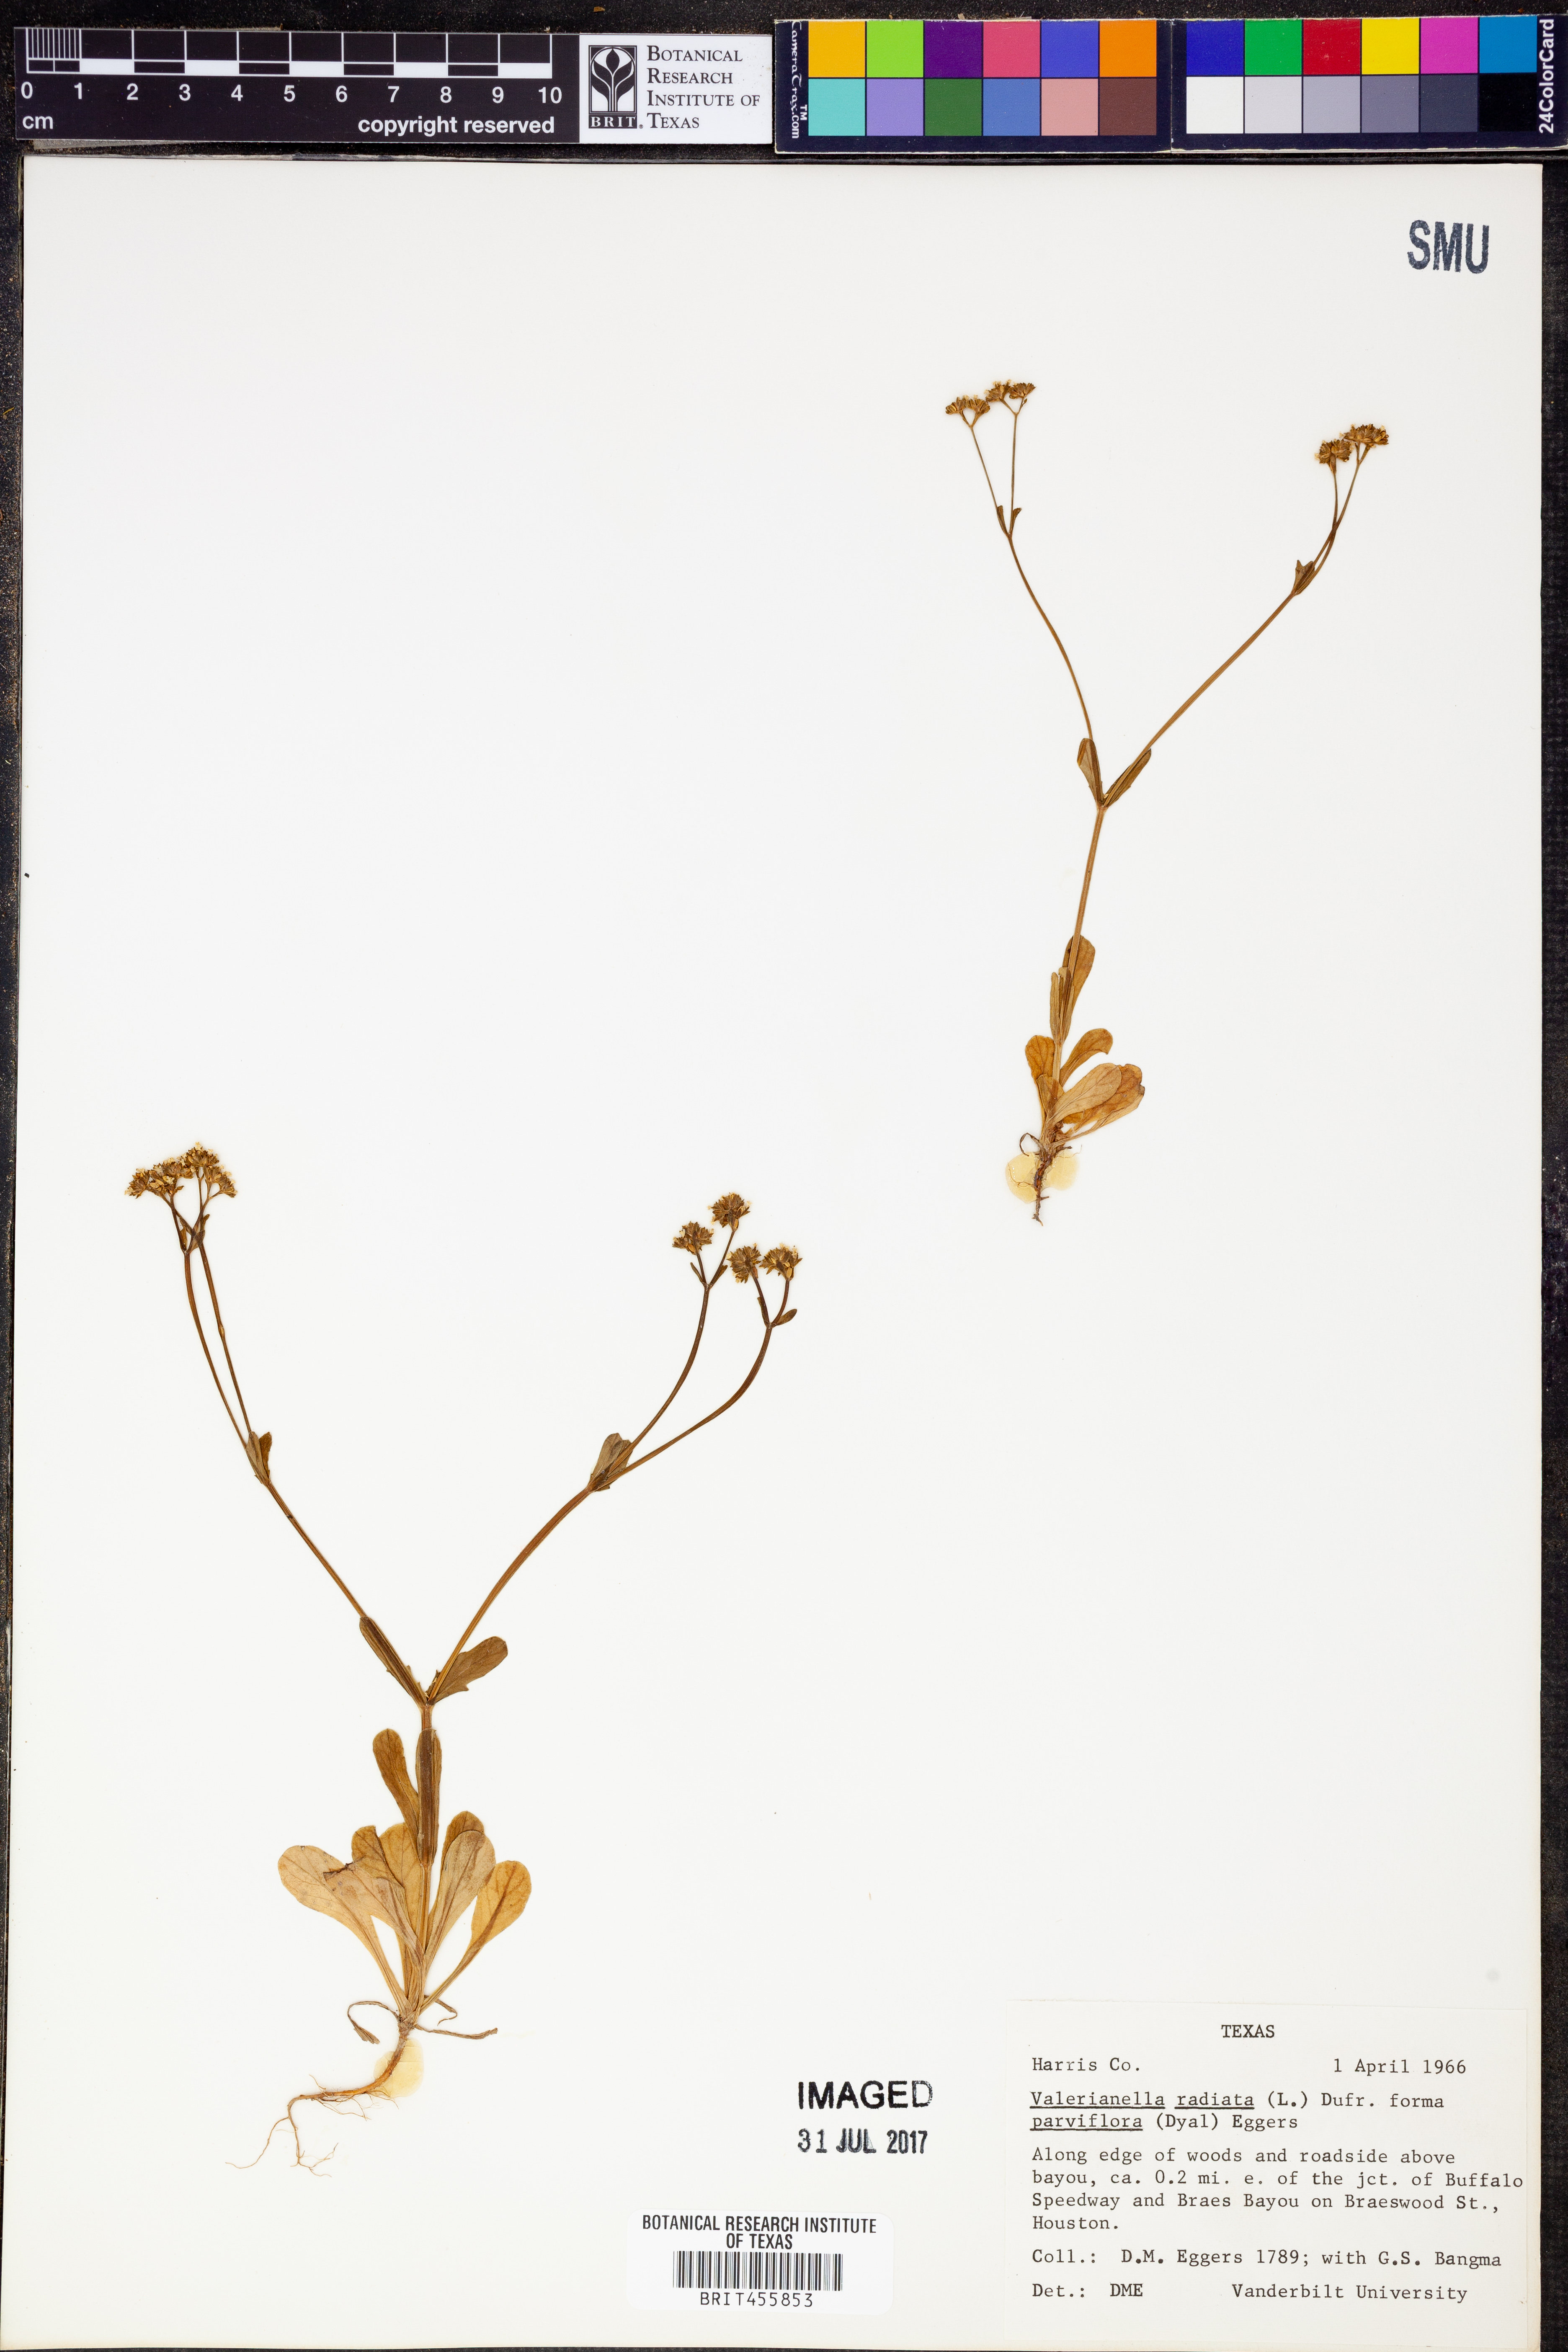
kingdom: Plantae
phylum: Tracheophyta
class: Magnoliopsida
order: Dipsacales
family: Caprifoliaceae
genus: Valerianella
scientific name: Valerianella radiata
